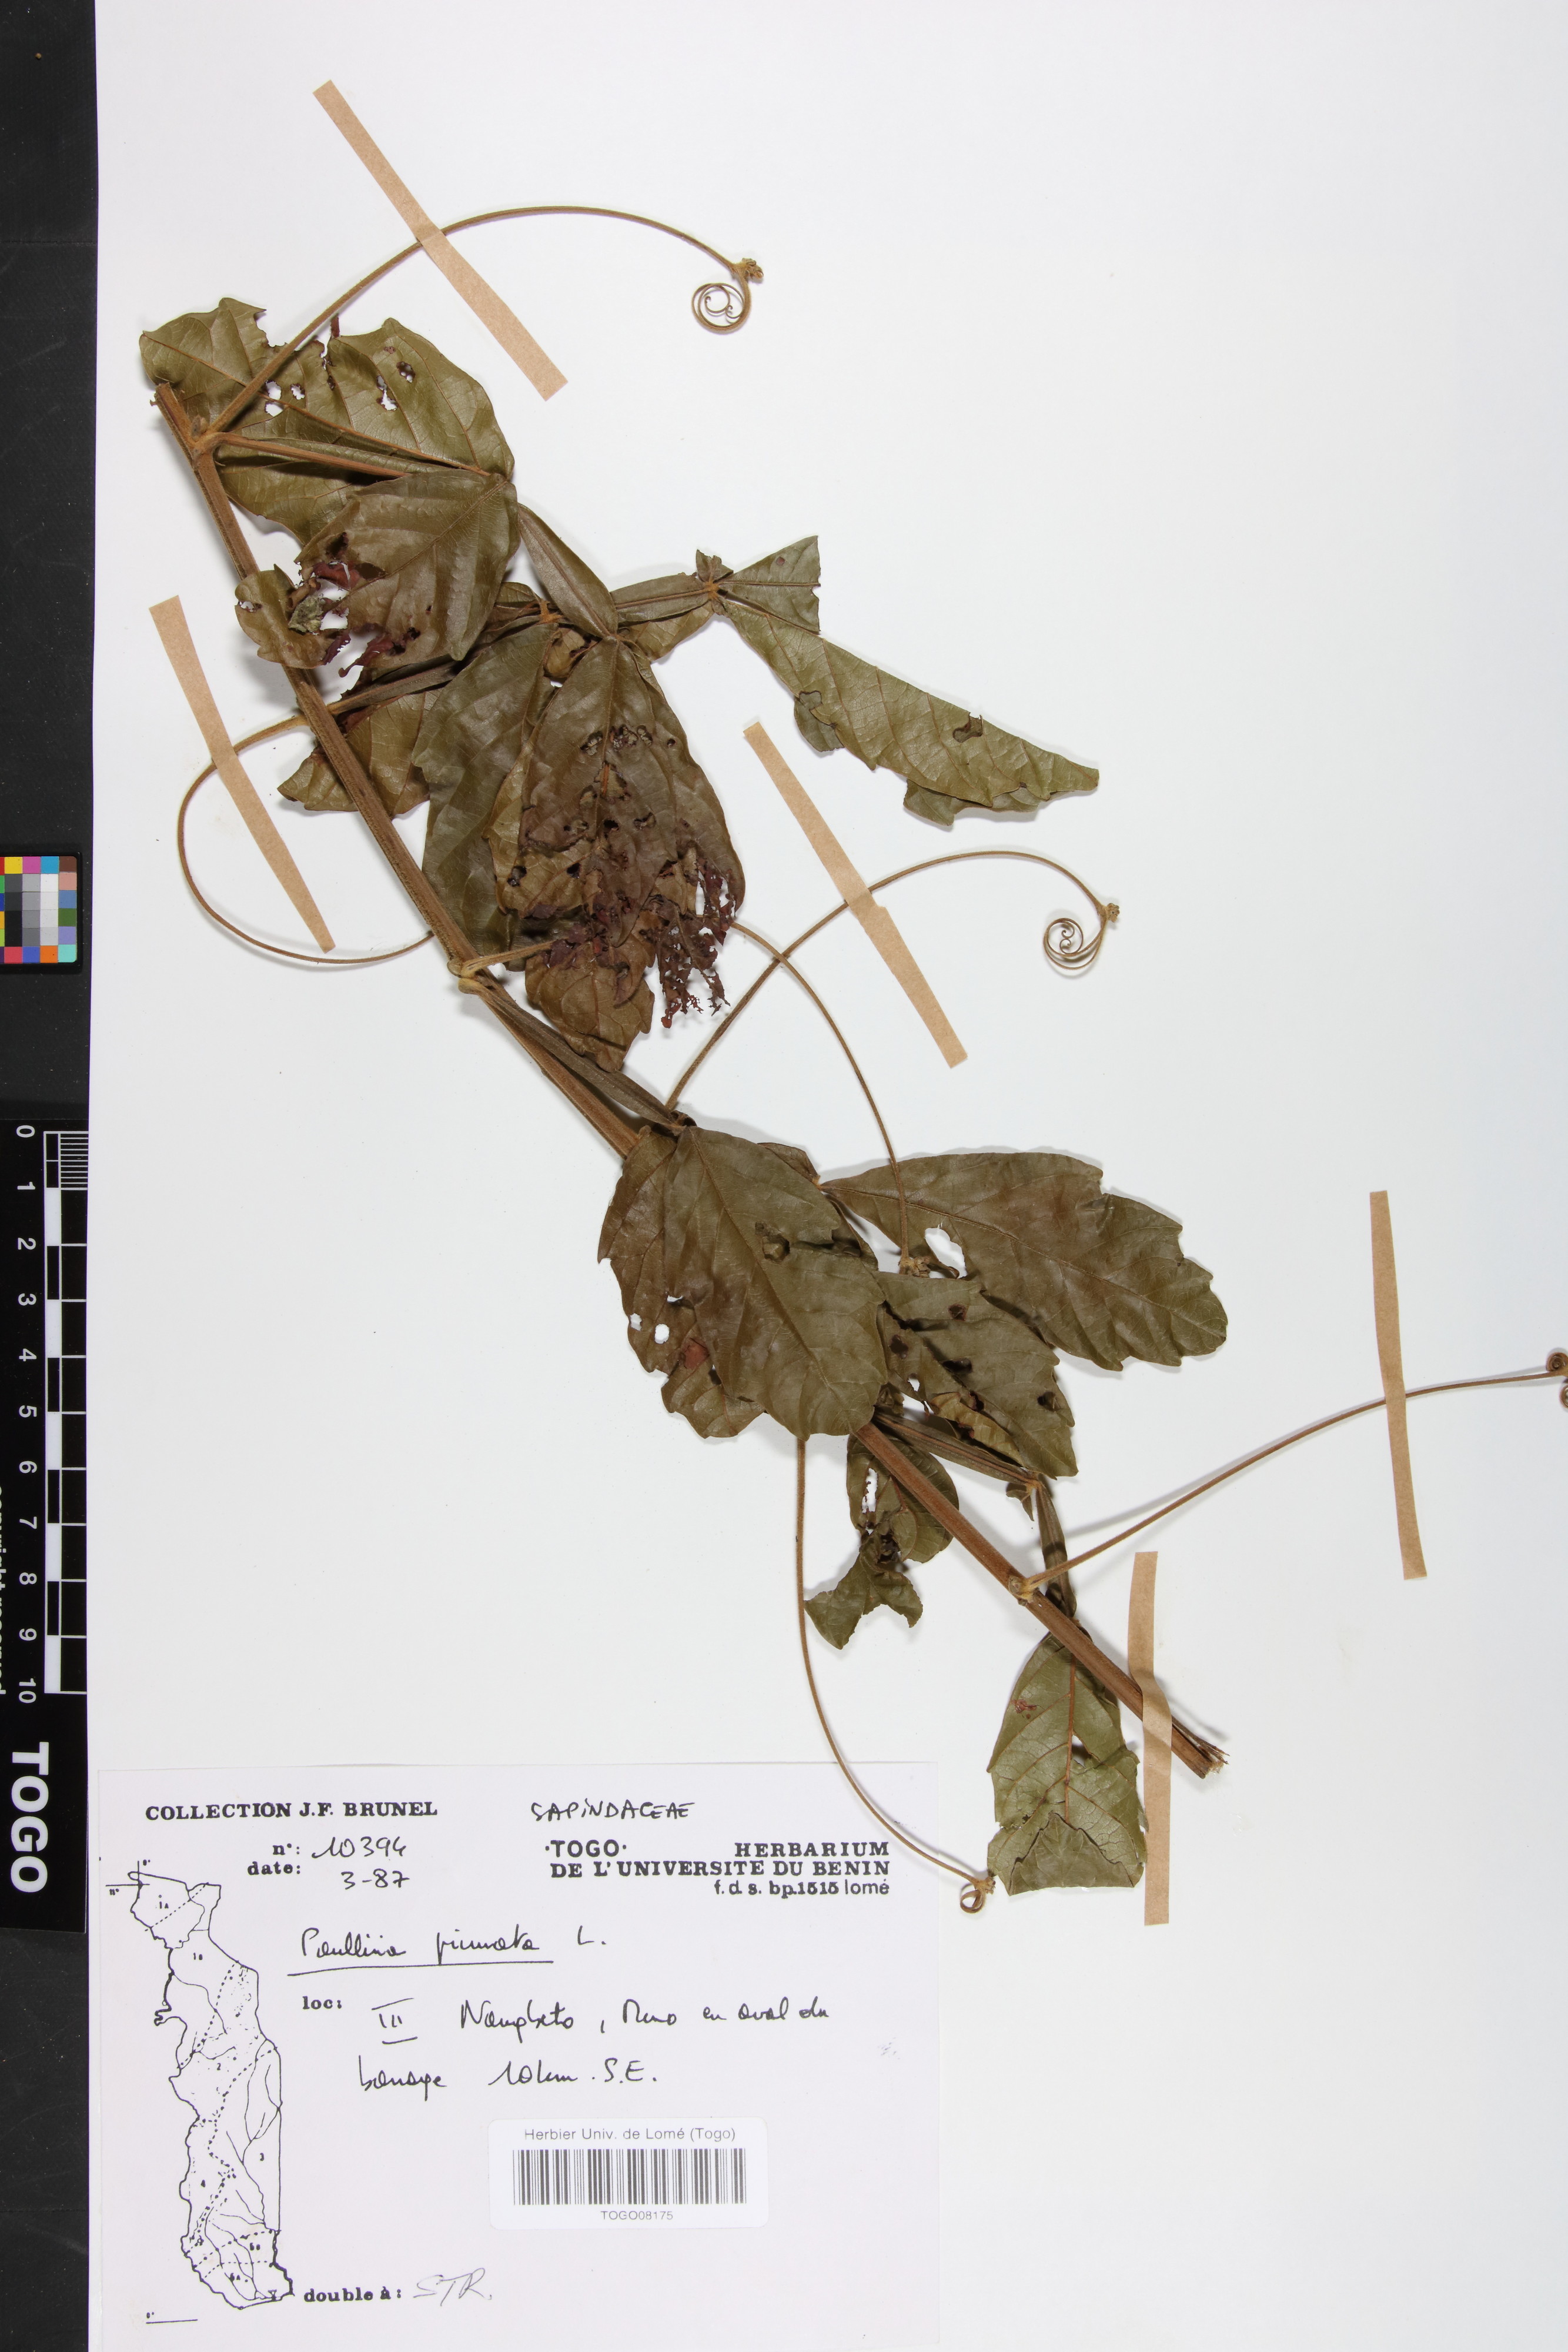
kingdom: Plantae
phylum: Tracheophyta
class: Magnoliopsida
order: Sapindales
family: Sapindaceae
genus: Paullinia
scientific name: Paullinia pinnata
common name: Barbasco
